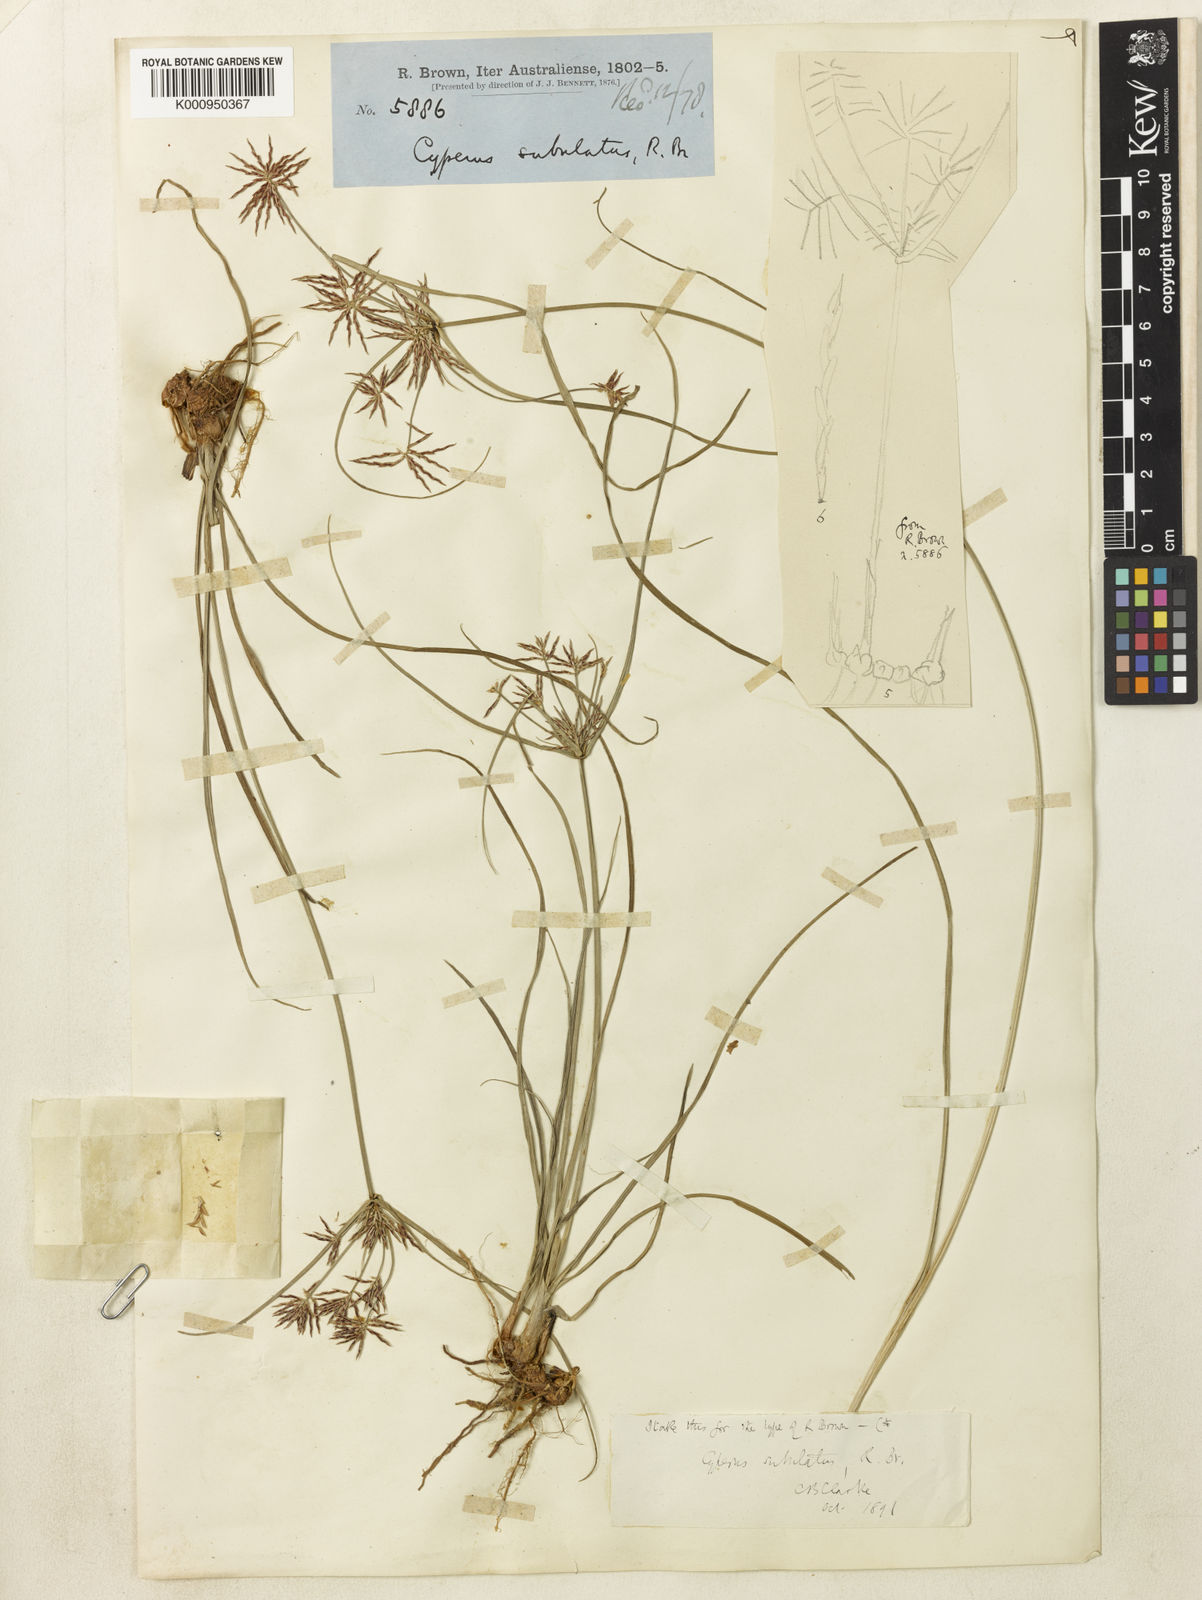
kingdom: Plantae
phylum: Tracheophyta
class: Liliopsida
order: Poales
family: Cyperaceae
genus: Cyperus
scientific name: Cyperus subulatus
